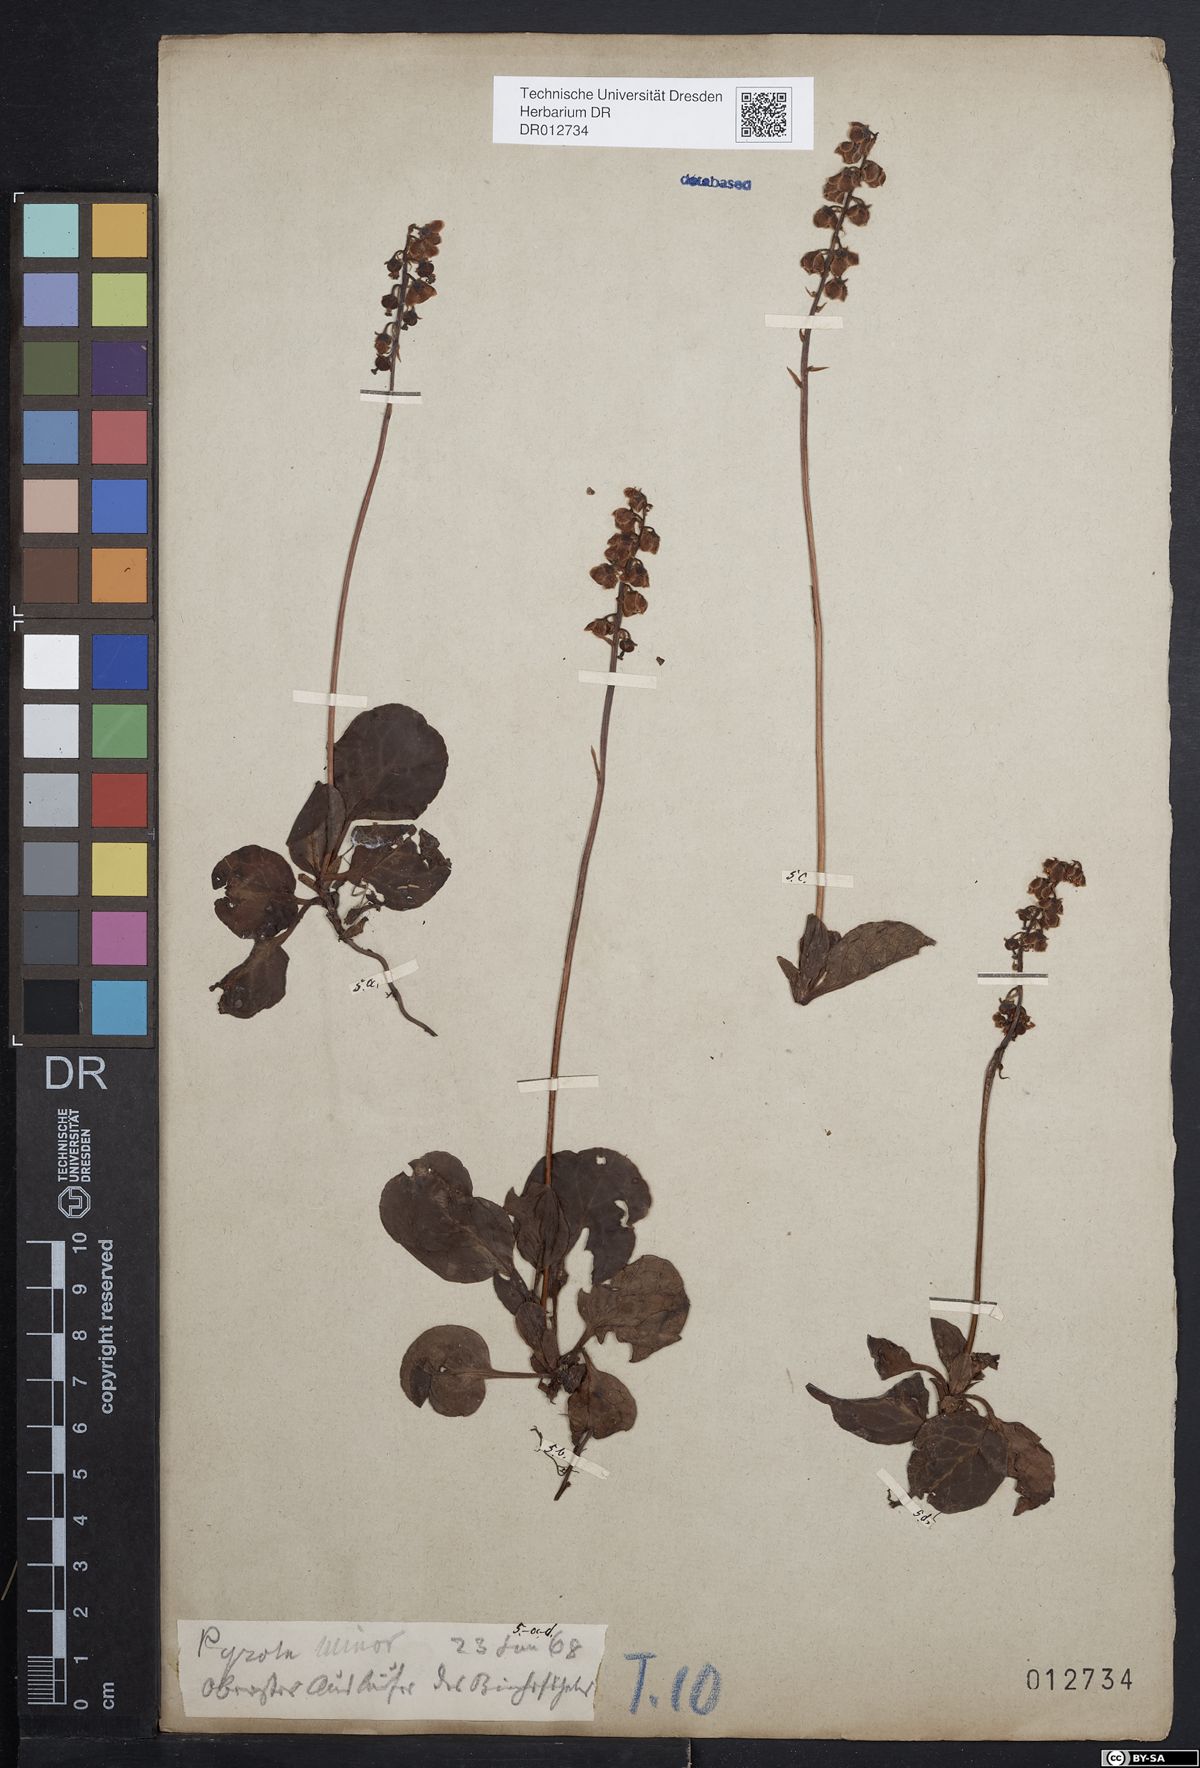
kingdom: Plantae
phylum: Tracheophyta
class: Magnoliopsida
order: Ericales
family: Ericaceae
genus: Pyrola
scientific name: Pyrola minor
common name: Common wintergreen
